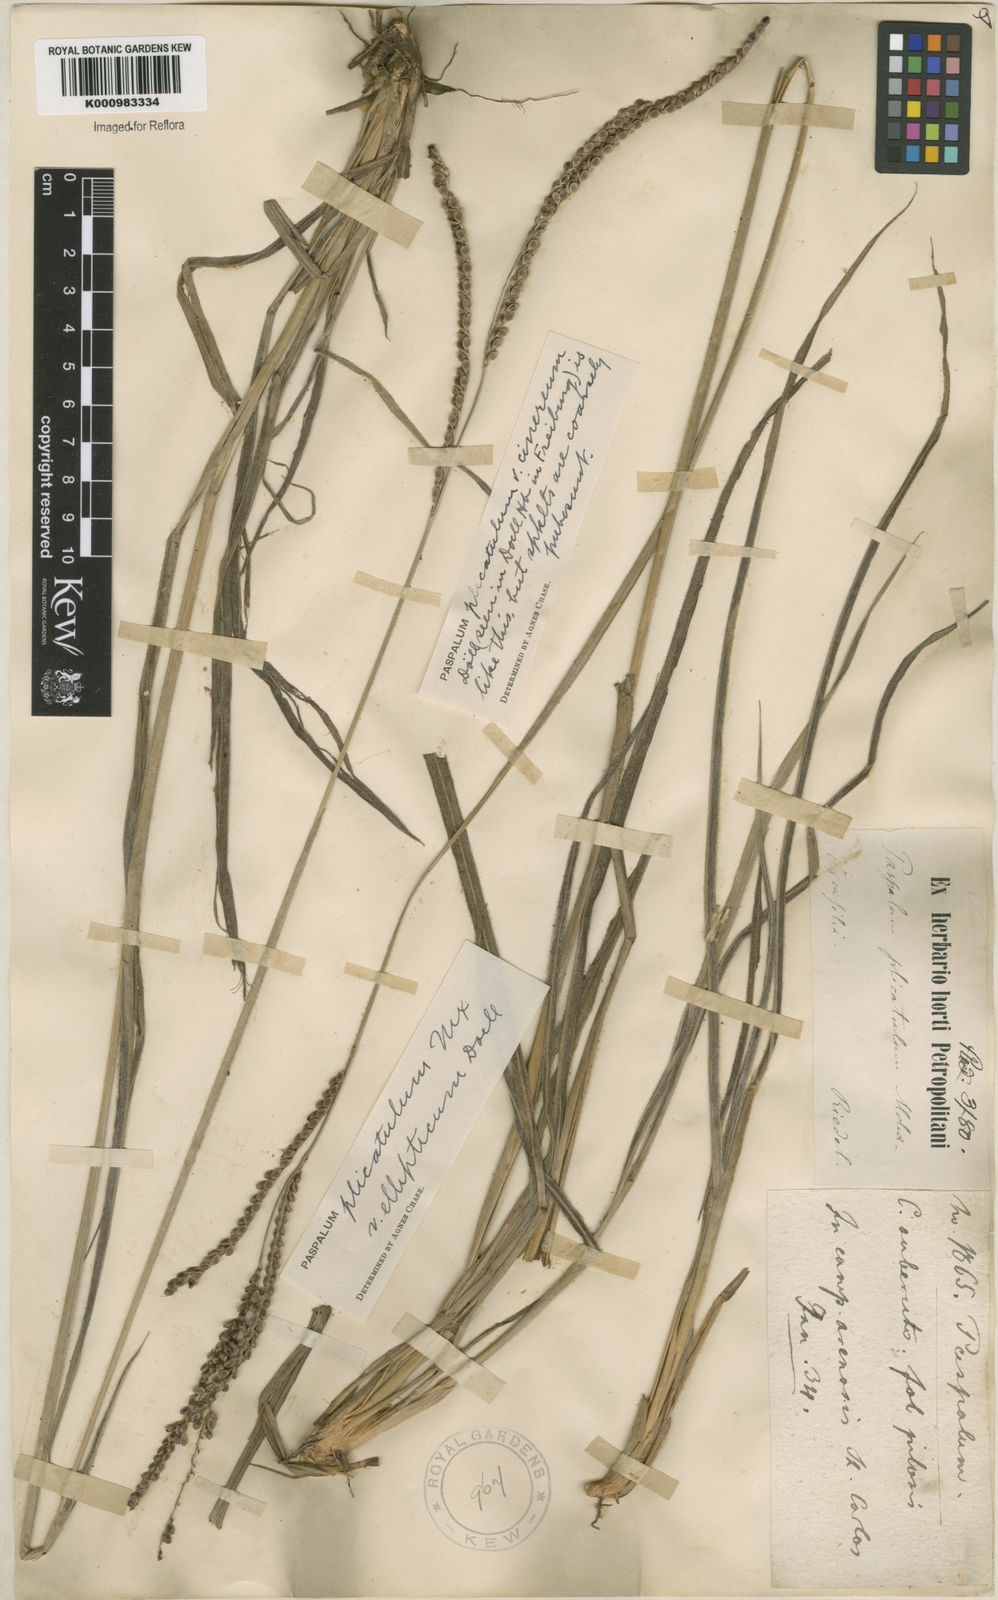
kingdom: Plantae
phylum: Tracheophyta
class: Liliopsida
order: Poales
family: Poaceae
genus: Paspalum
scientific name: Paspalum plicatulum
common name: Top paspalum
